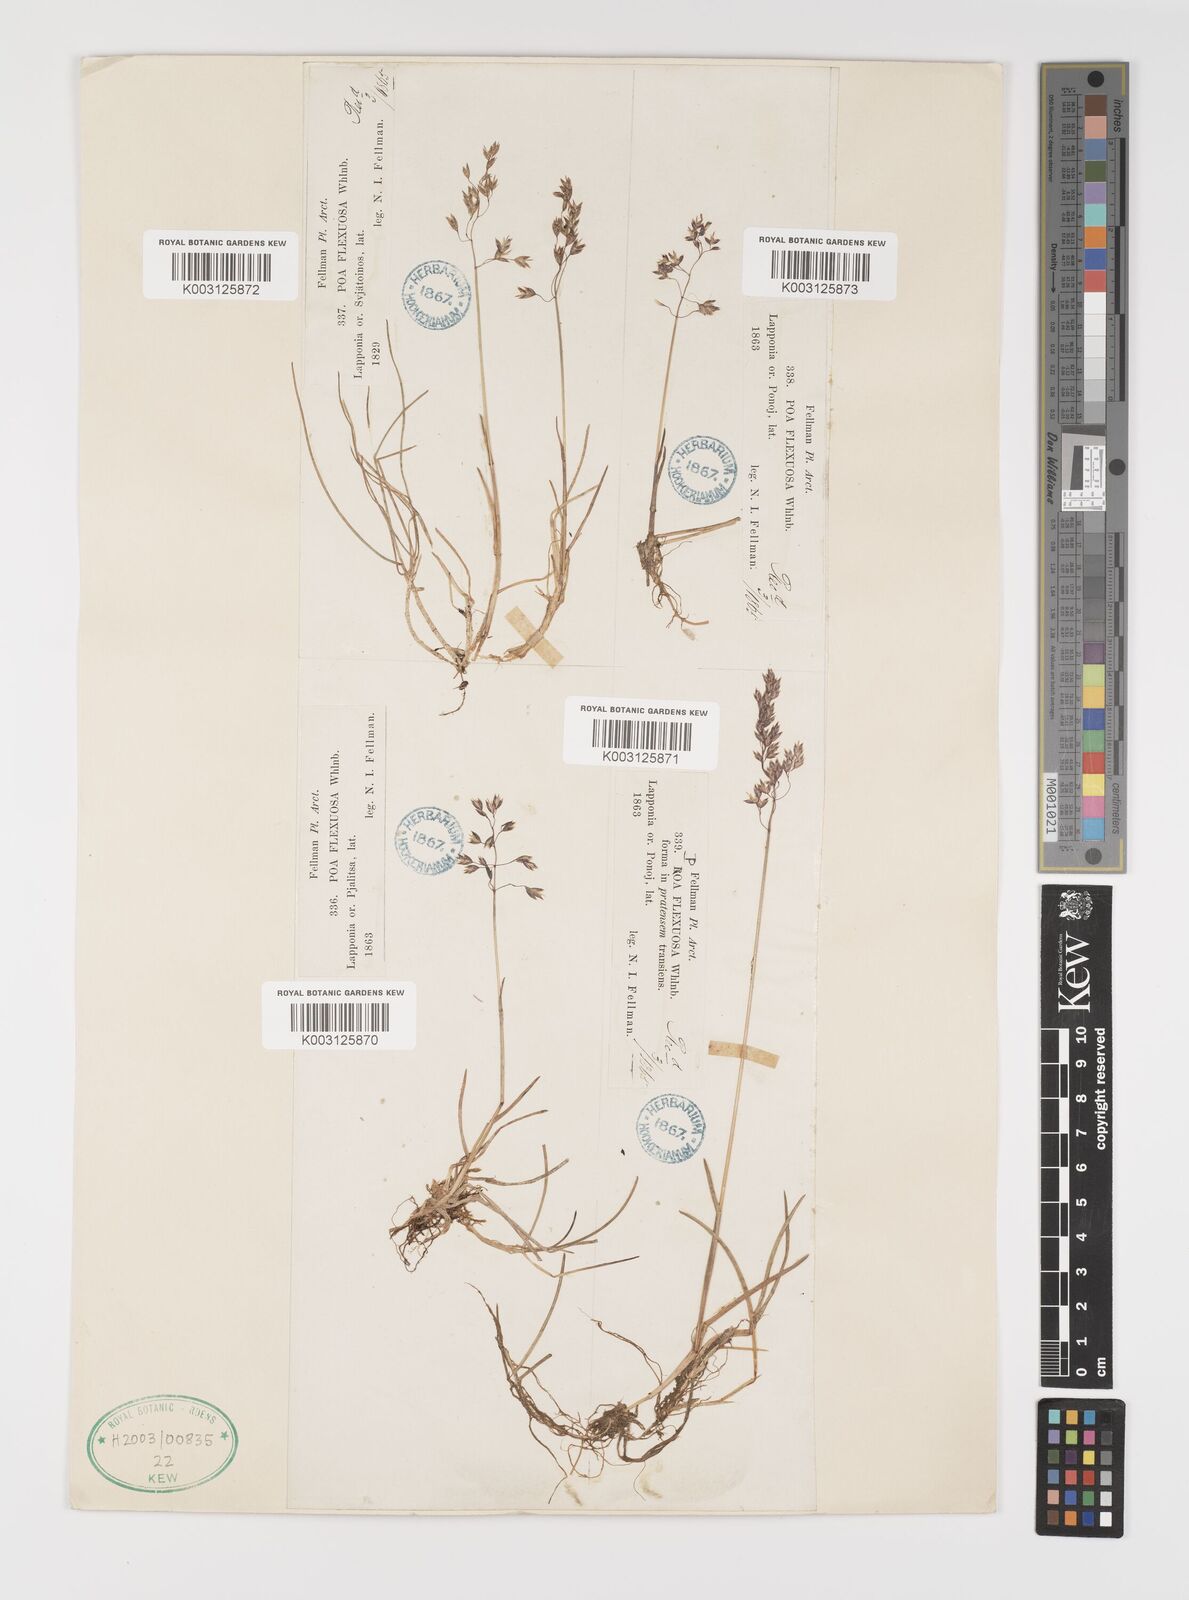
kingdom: Plantae
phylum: Tracheophyta
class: Liliopsida
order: Poales
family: Poaceae
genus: Eragrostis
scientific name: Eragrostis cilianensis
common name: Stinkgrass
